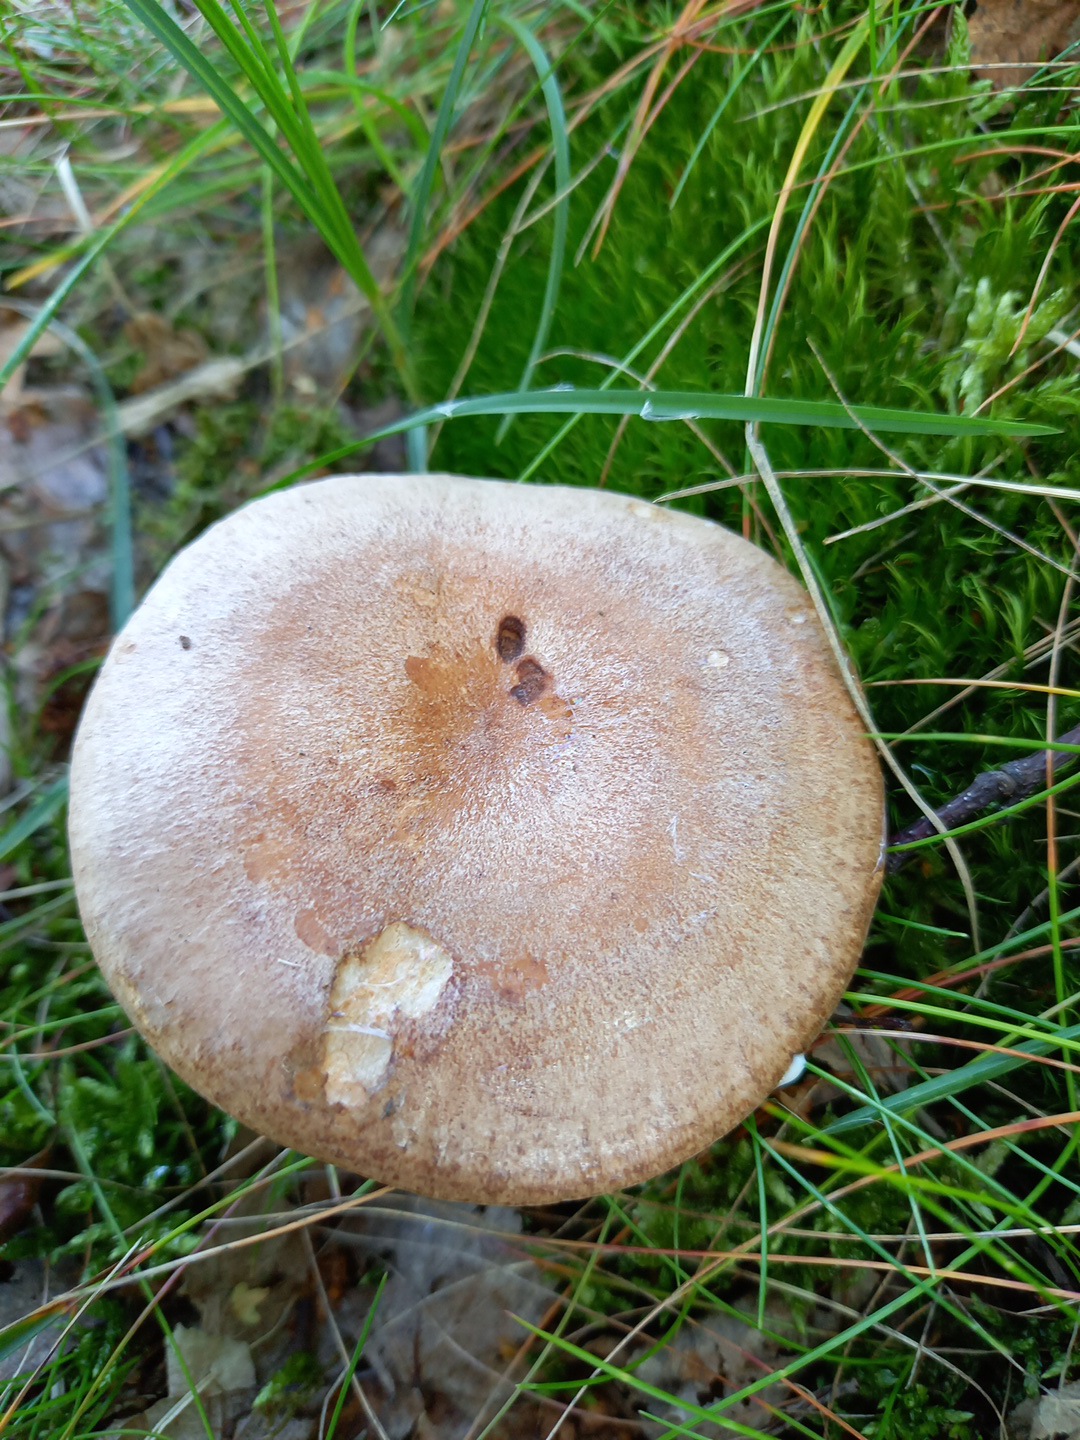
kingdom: Fungi
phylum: Basidiomycota
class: Agaricomycetes
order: Russulales
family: Russulaceae
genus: Lactarius
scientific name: Lactarius quietus
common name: ege-mælkehat
